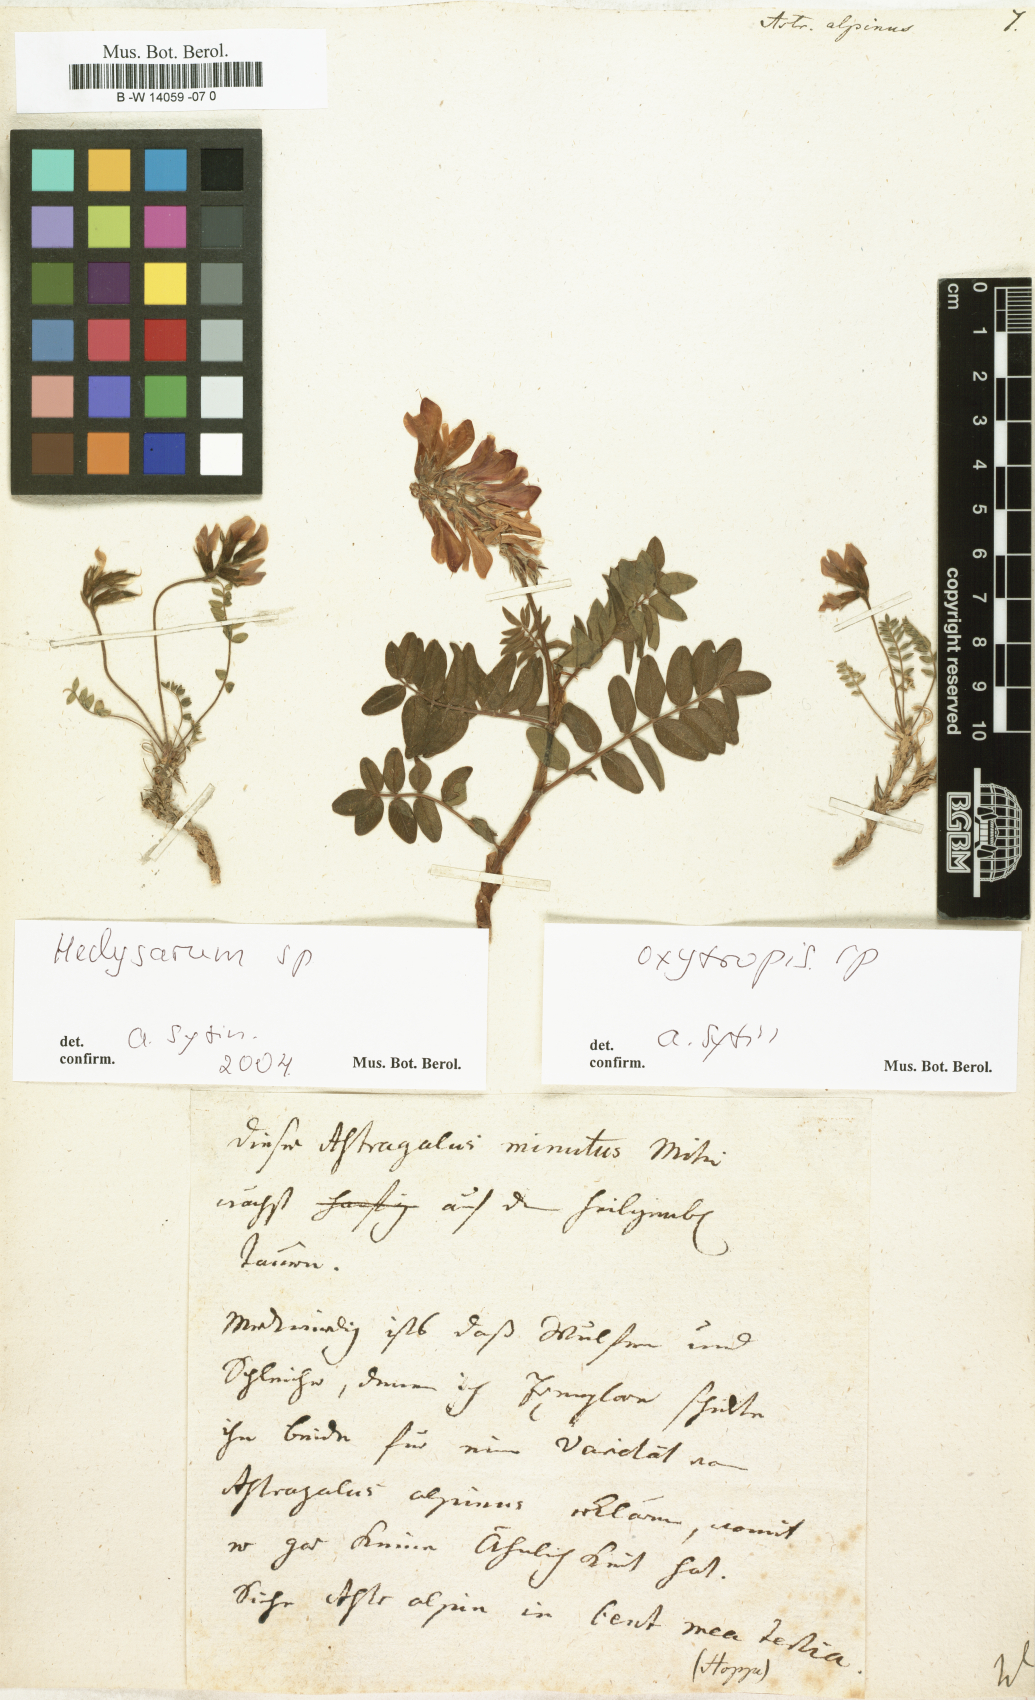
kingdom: Plantae
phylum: Tracheophyta
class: Magnoliopsida
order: Fabales
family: Fabaceae
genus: Astragalus
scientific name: Astragalus alpinus
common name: Alpine milk-vetch
